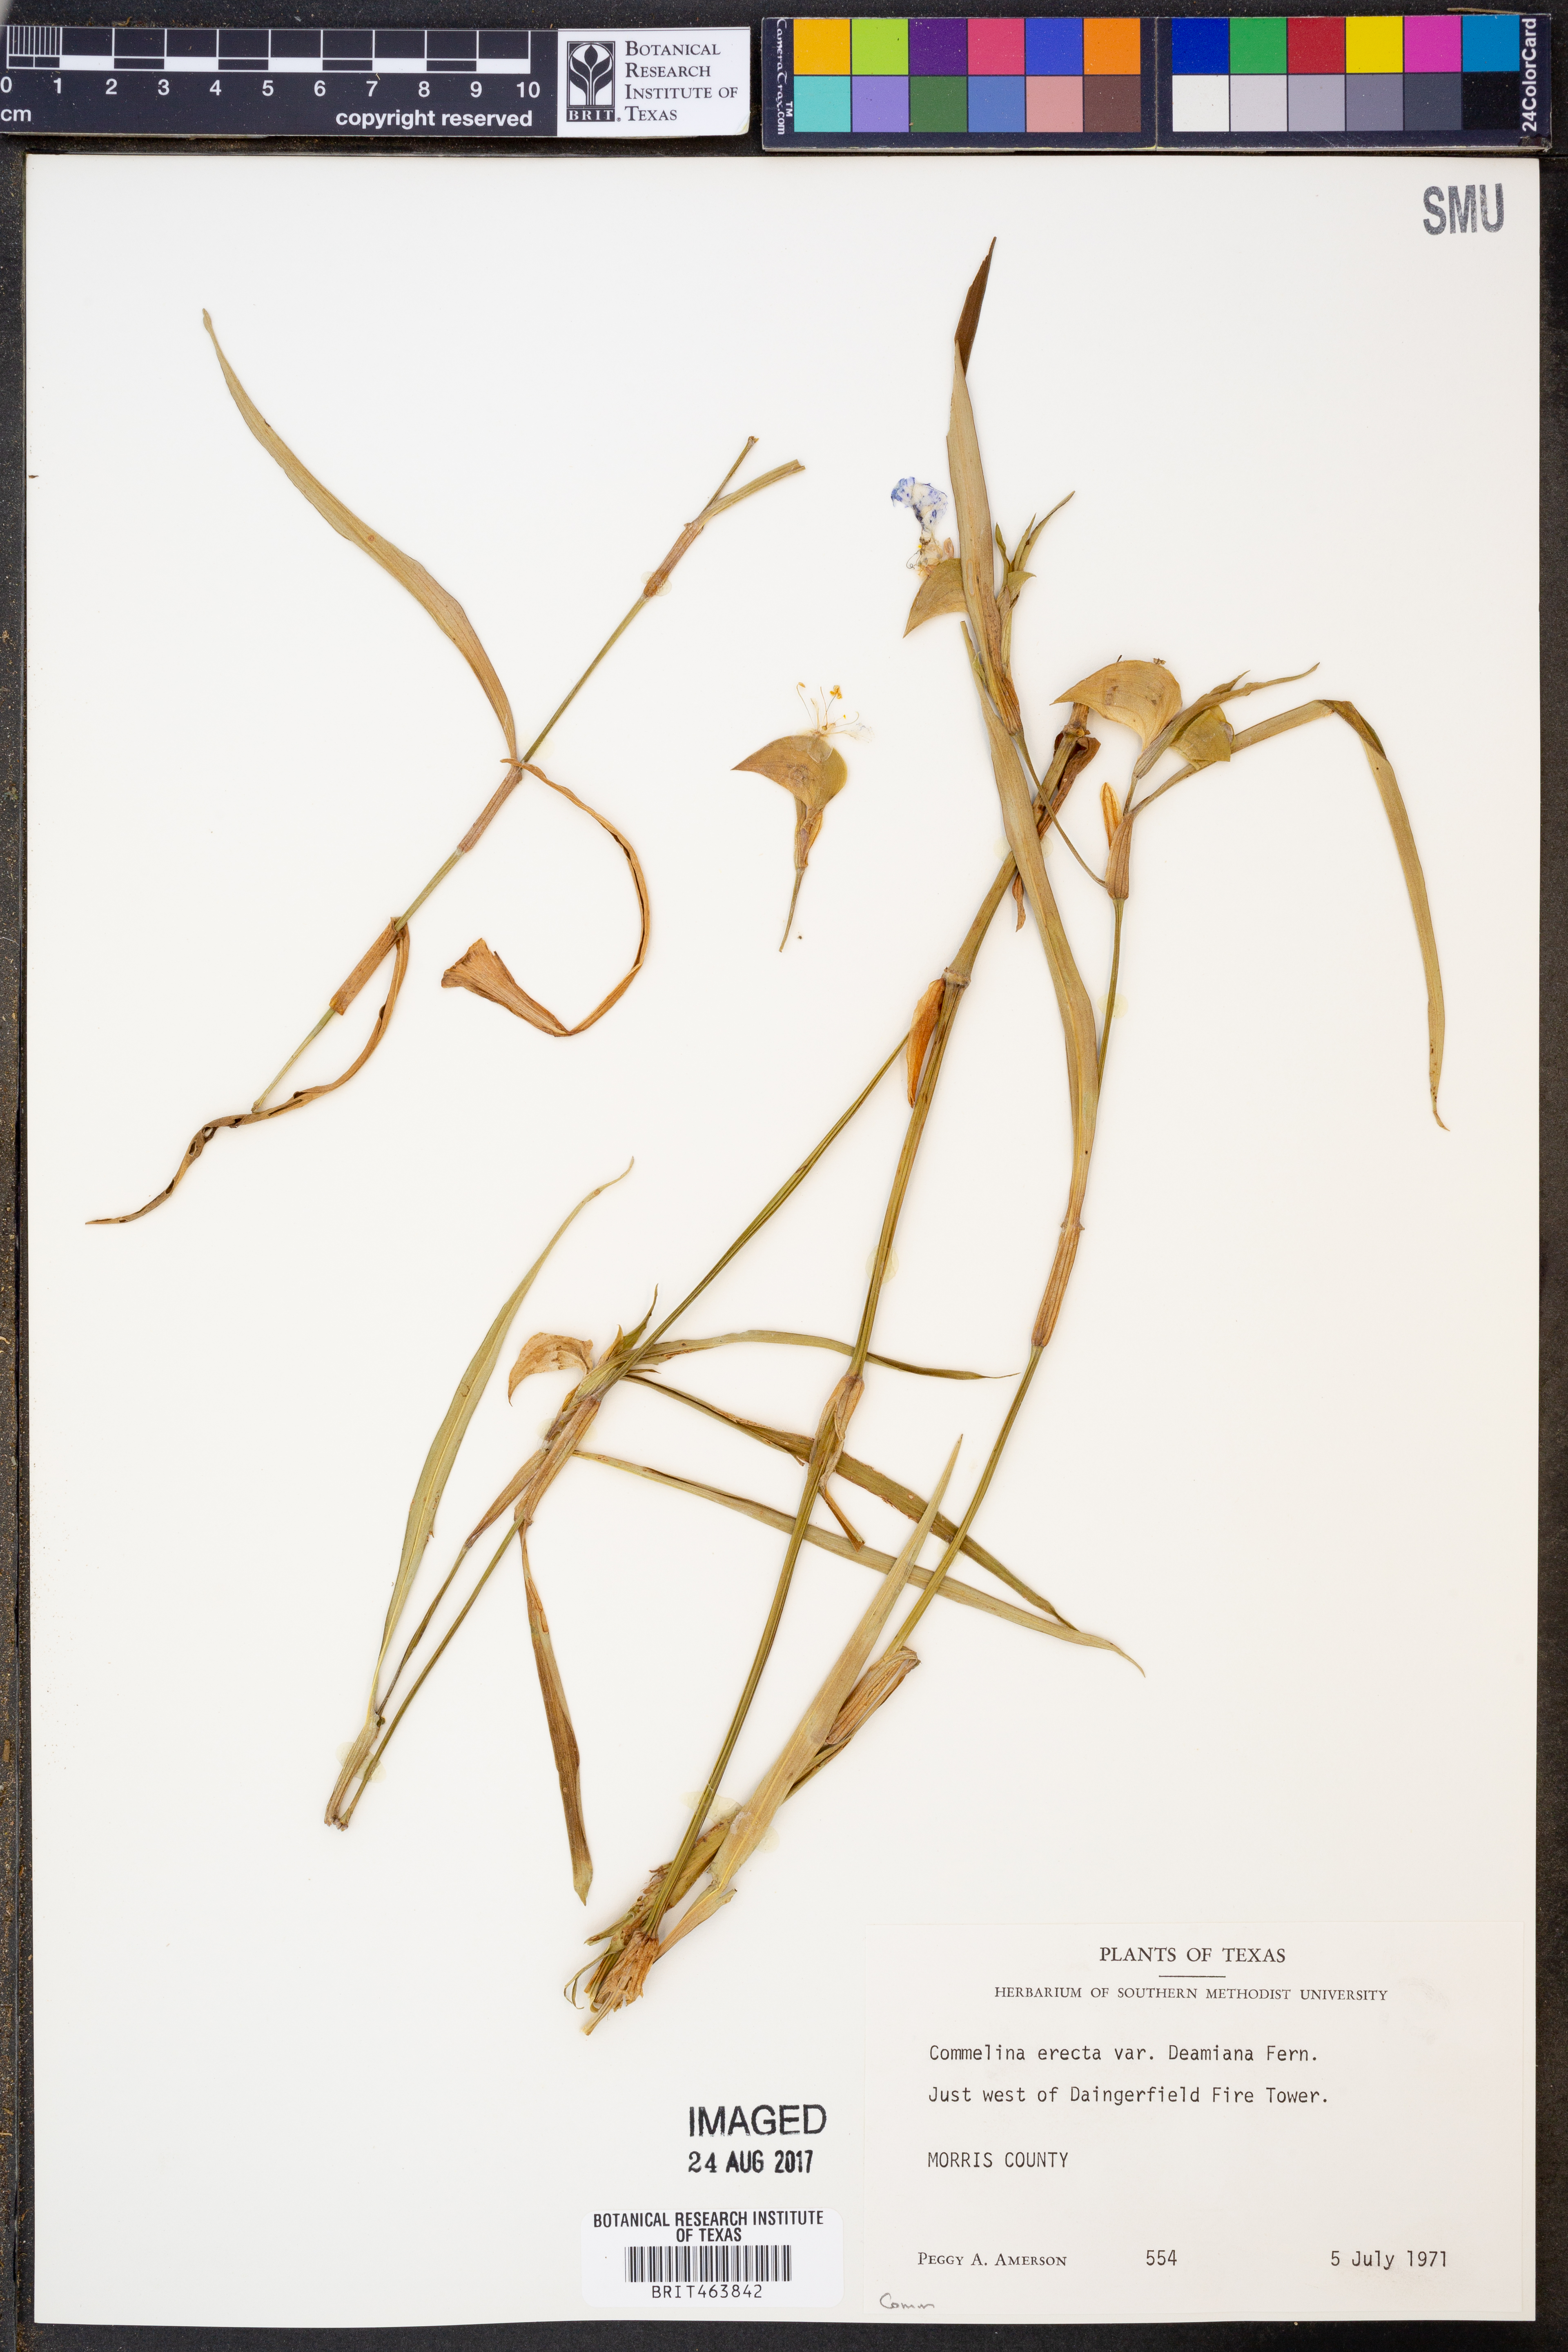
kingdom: Plantae
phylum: Tracheophyta
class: Liliopsida
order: Commelinales
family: Commelinaceae
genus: Commelina
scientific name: Commelina erecta
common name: Blousel blommetjie
